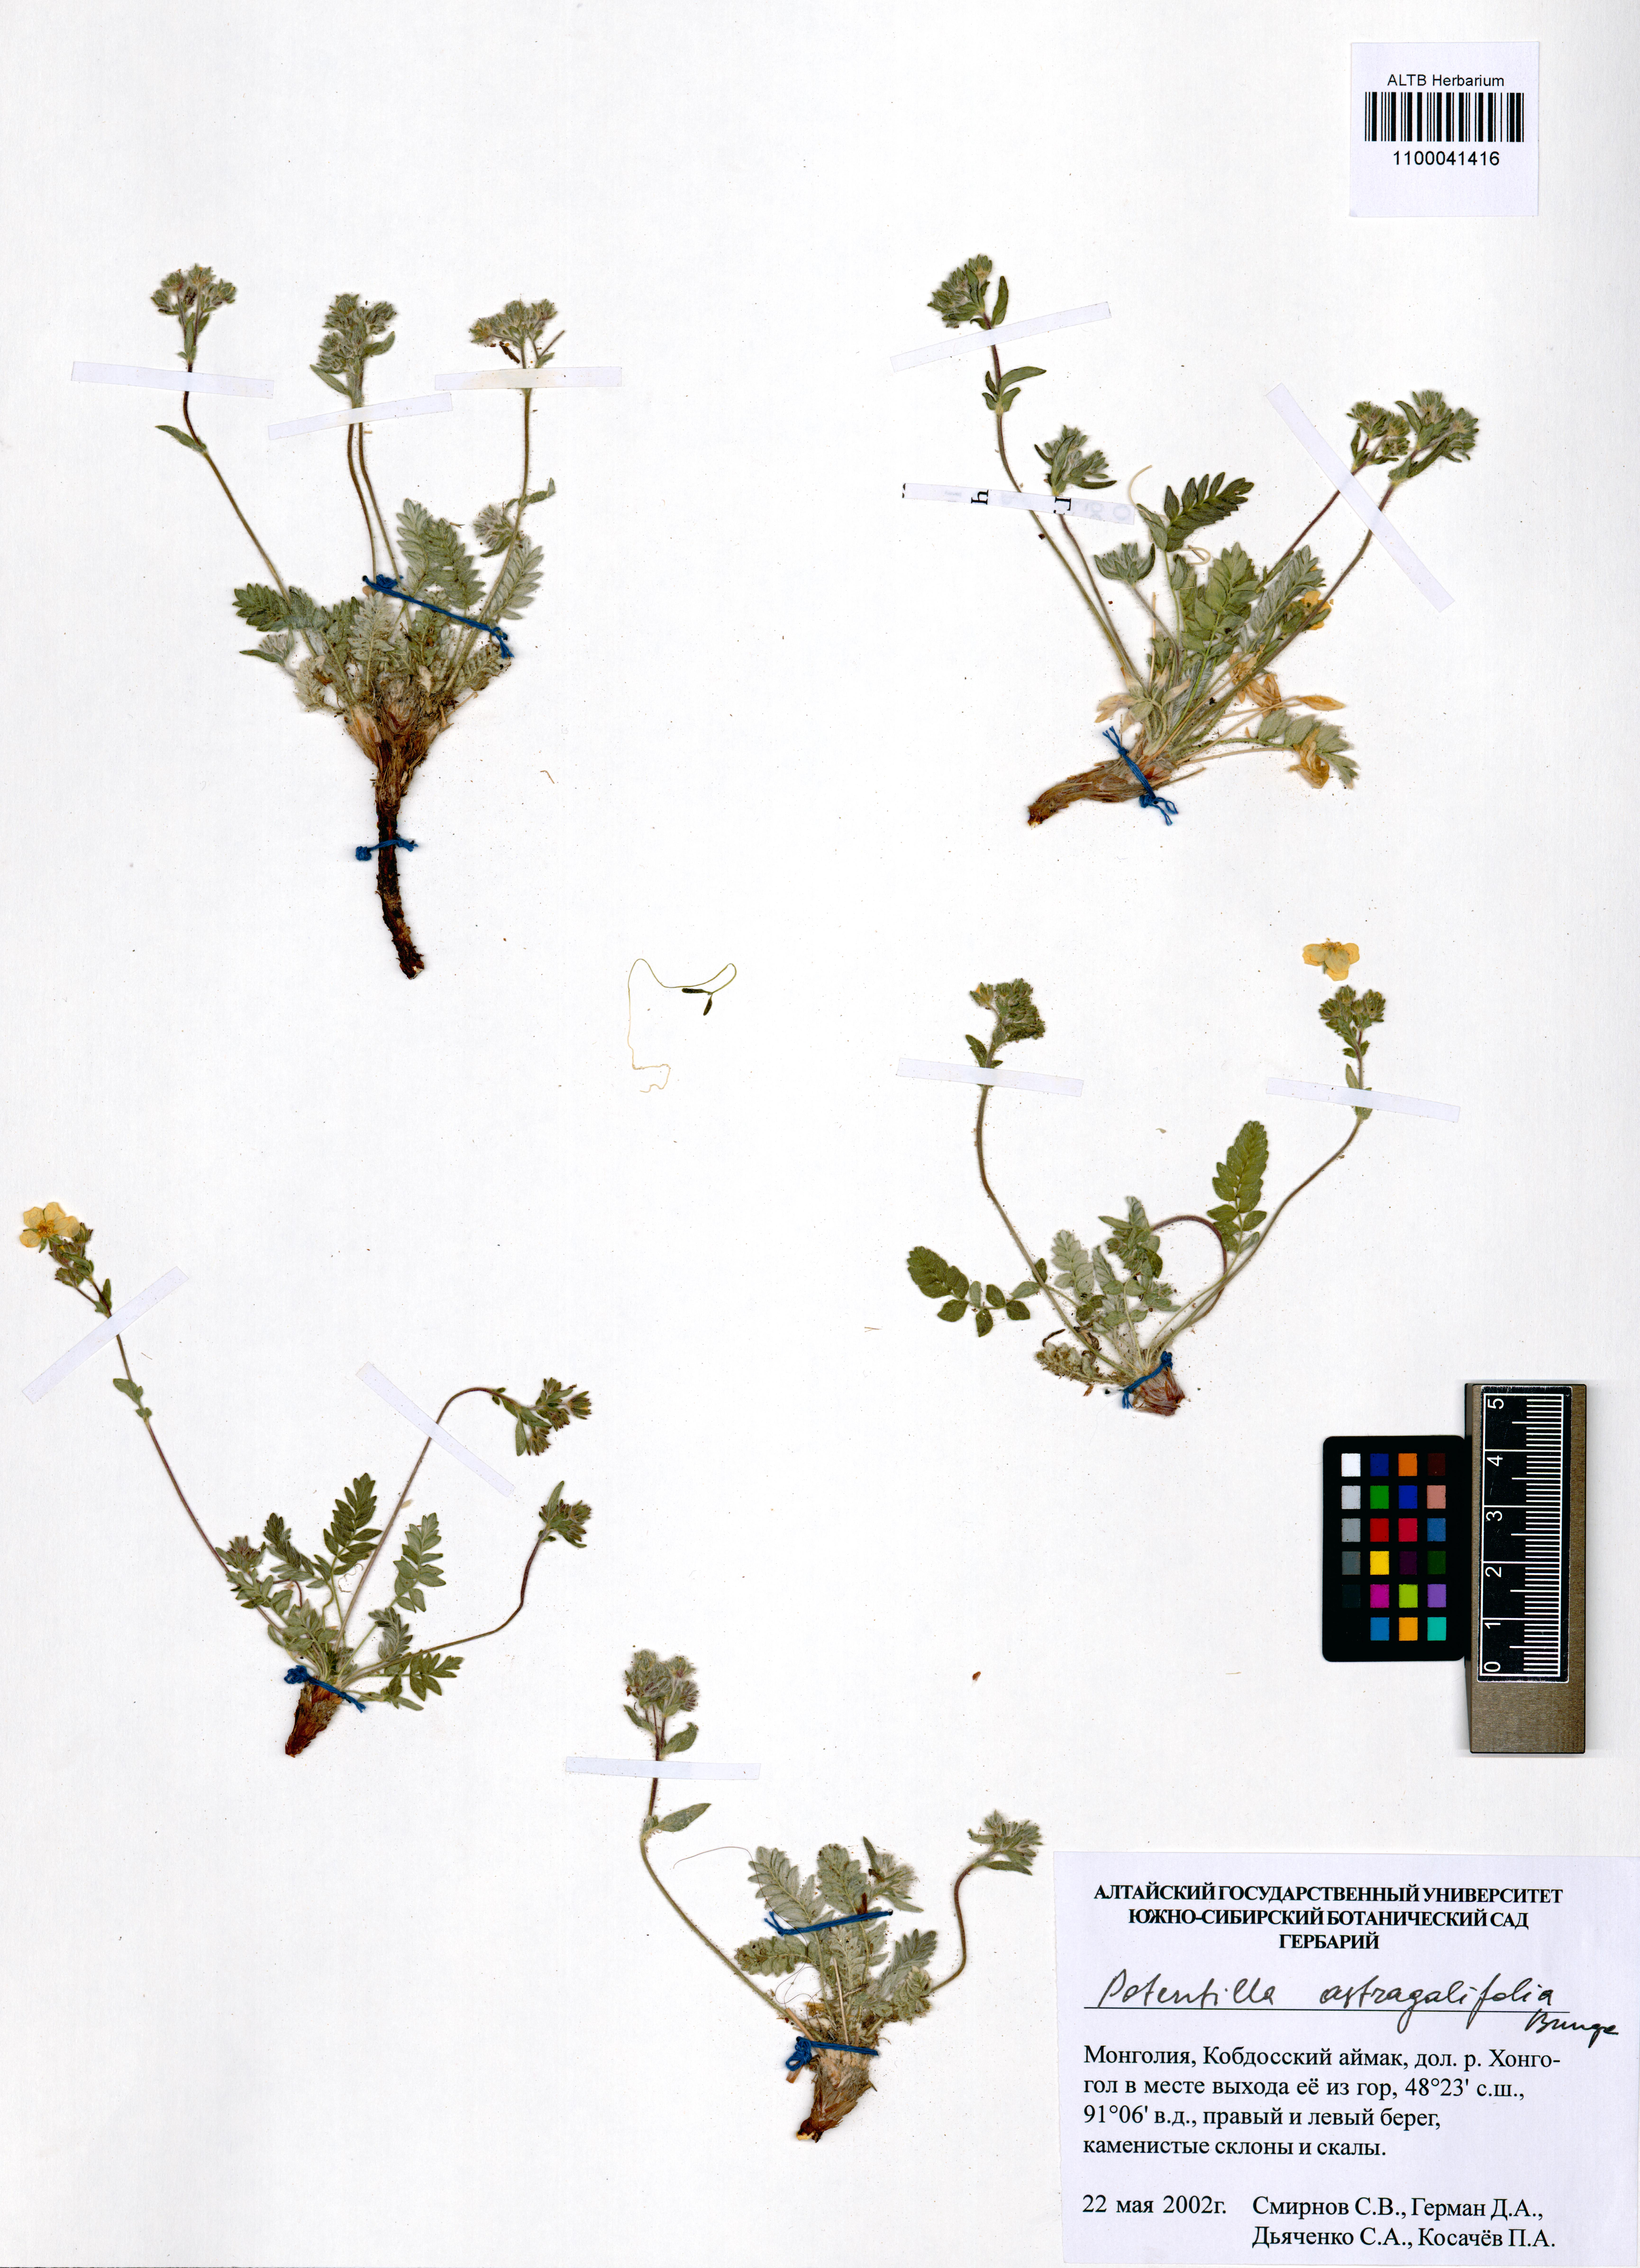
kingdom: Plantae
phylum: Tracheophyta
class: Magnoliopsida
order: Rosales
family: Rosaceae
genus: Potentilla
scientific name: Potentilla astragalifolia
